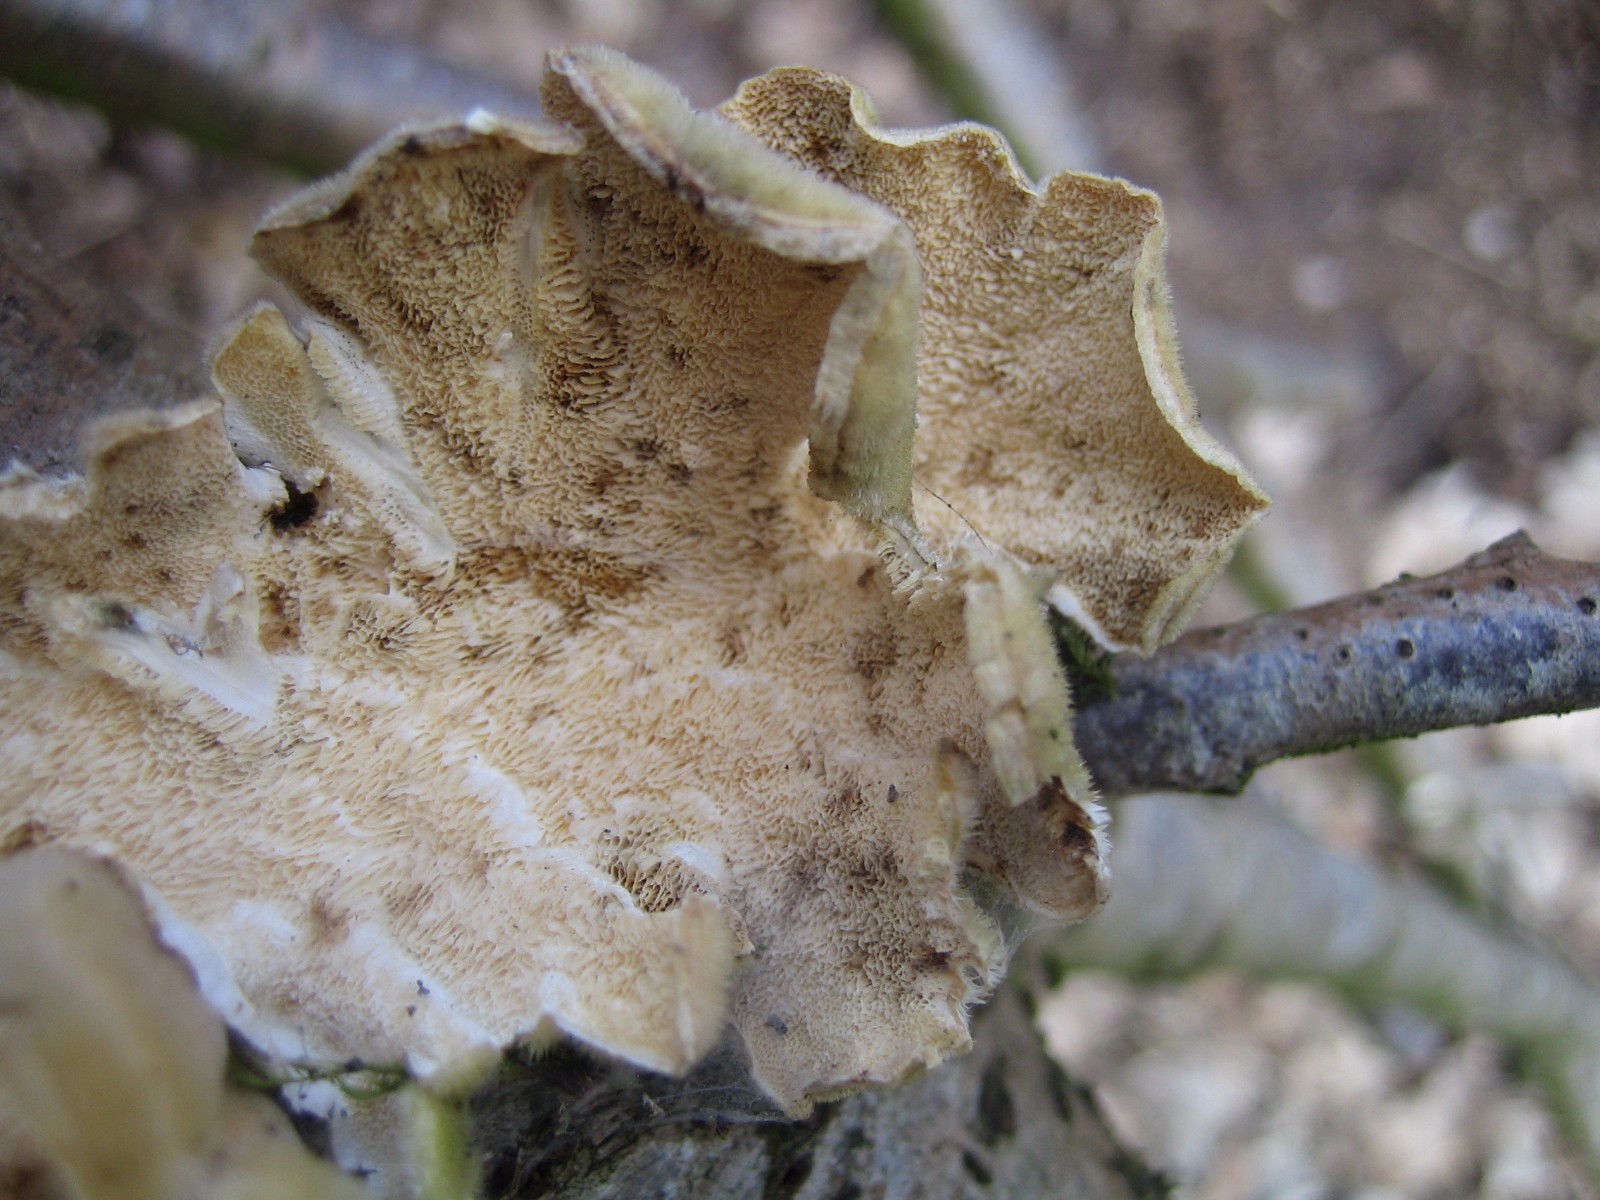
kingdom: Fungi
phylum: Basidiomycota
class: Agaricomycetes
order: Polyporales
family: Polyporaceae
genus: Trametes
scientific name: Trametes hirsuta
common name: håret læderporesvamp
